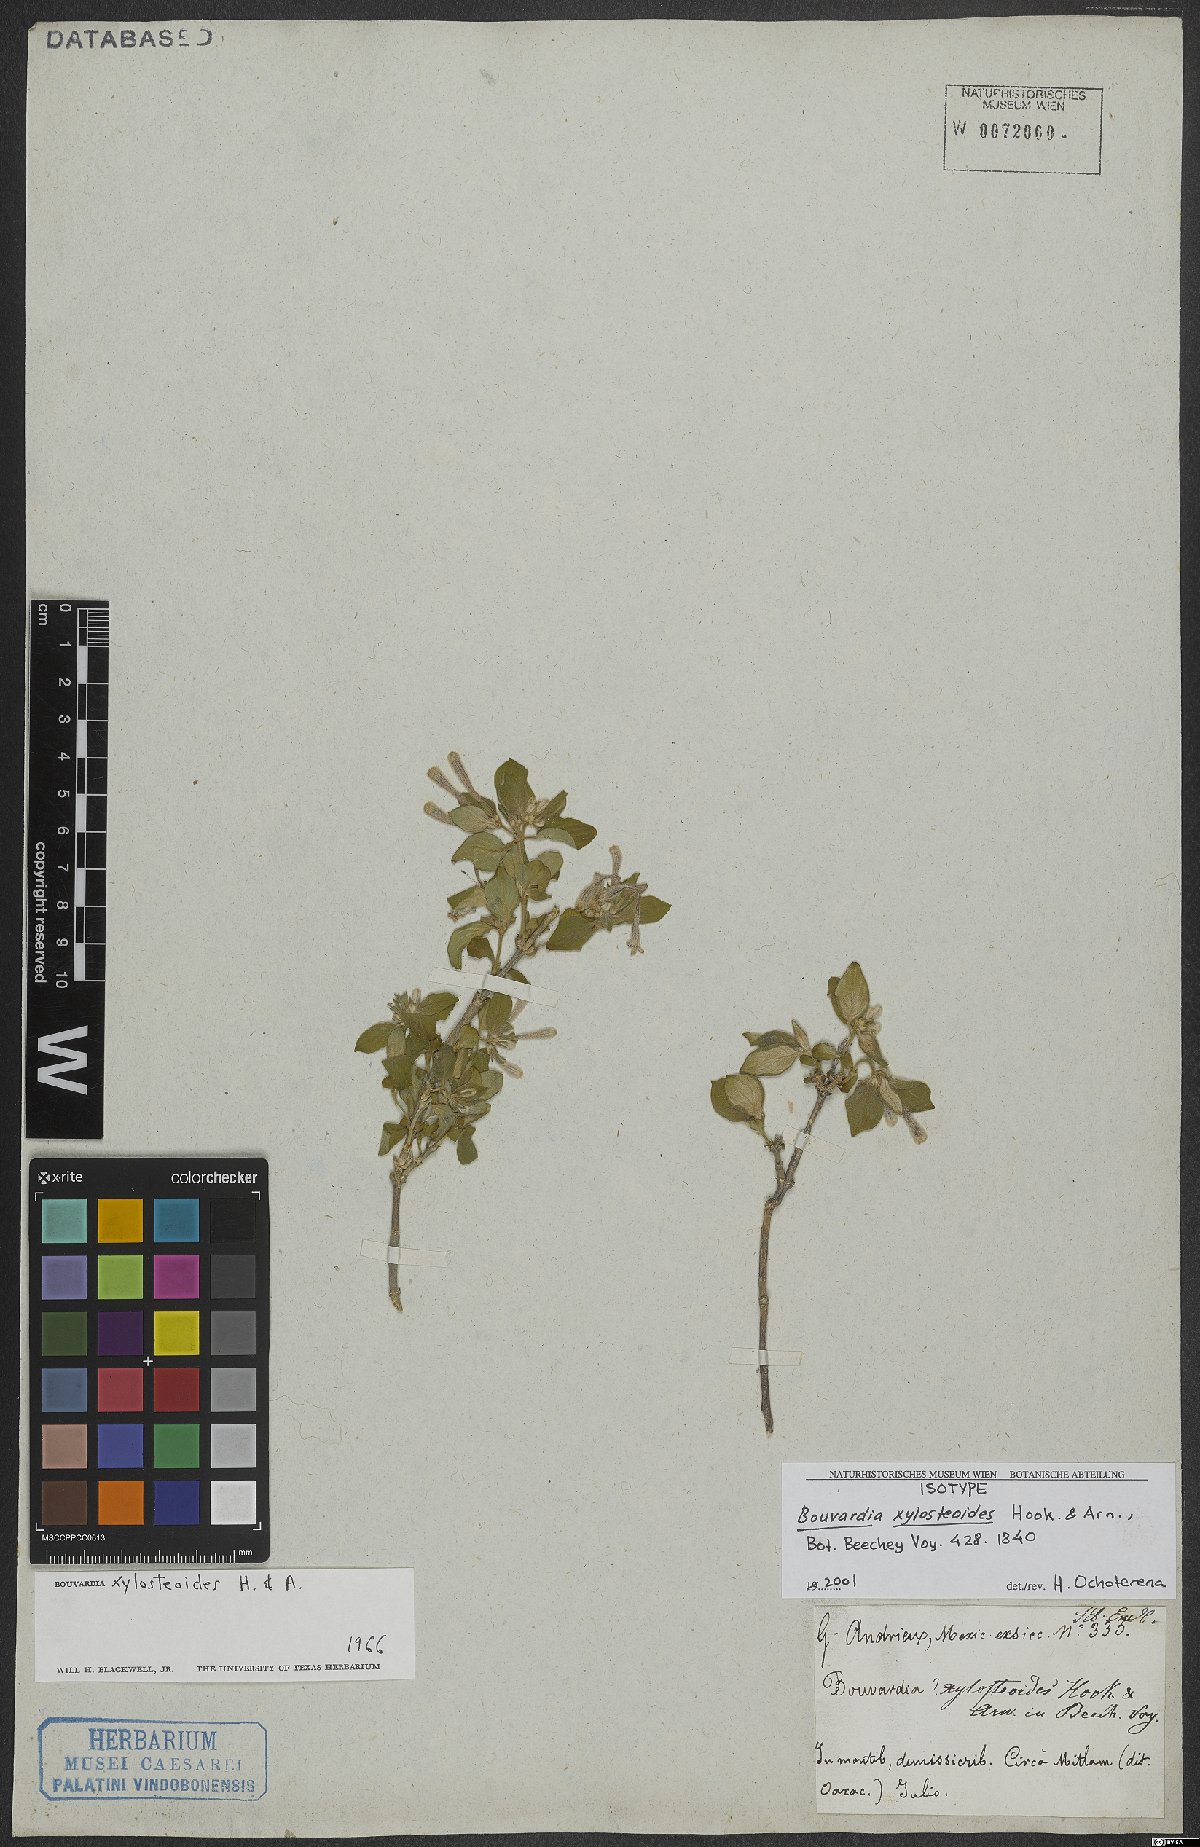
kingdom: Plantae
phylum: Tracheophyta
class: Magnoliopsida
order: Gentianales
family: Rubiaceae
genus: Bouvardia
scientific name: Bouvardia xylosteoides
